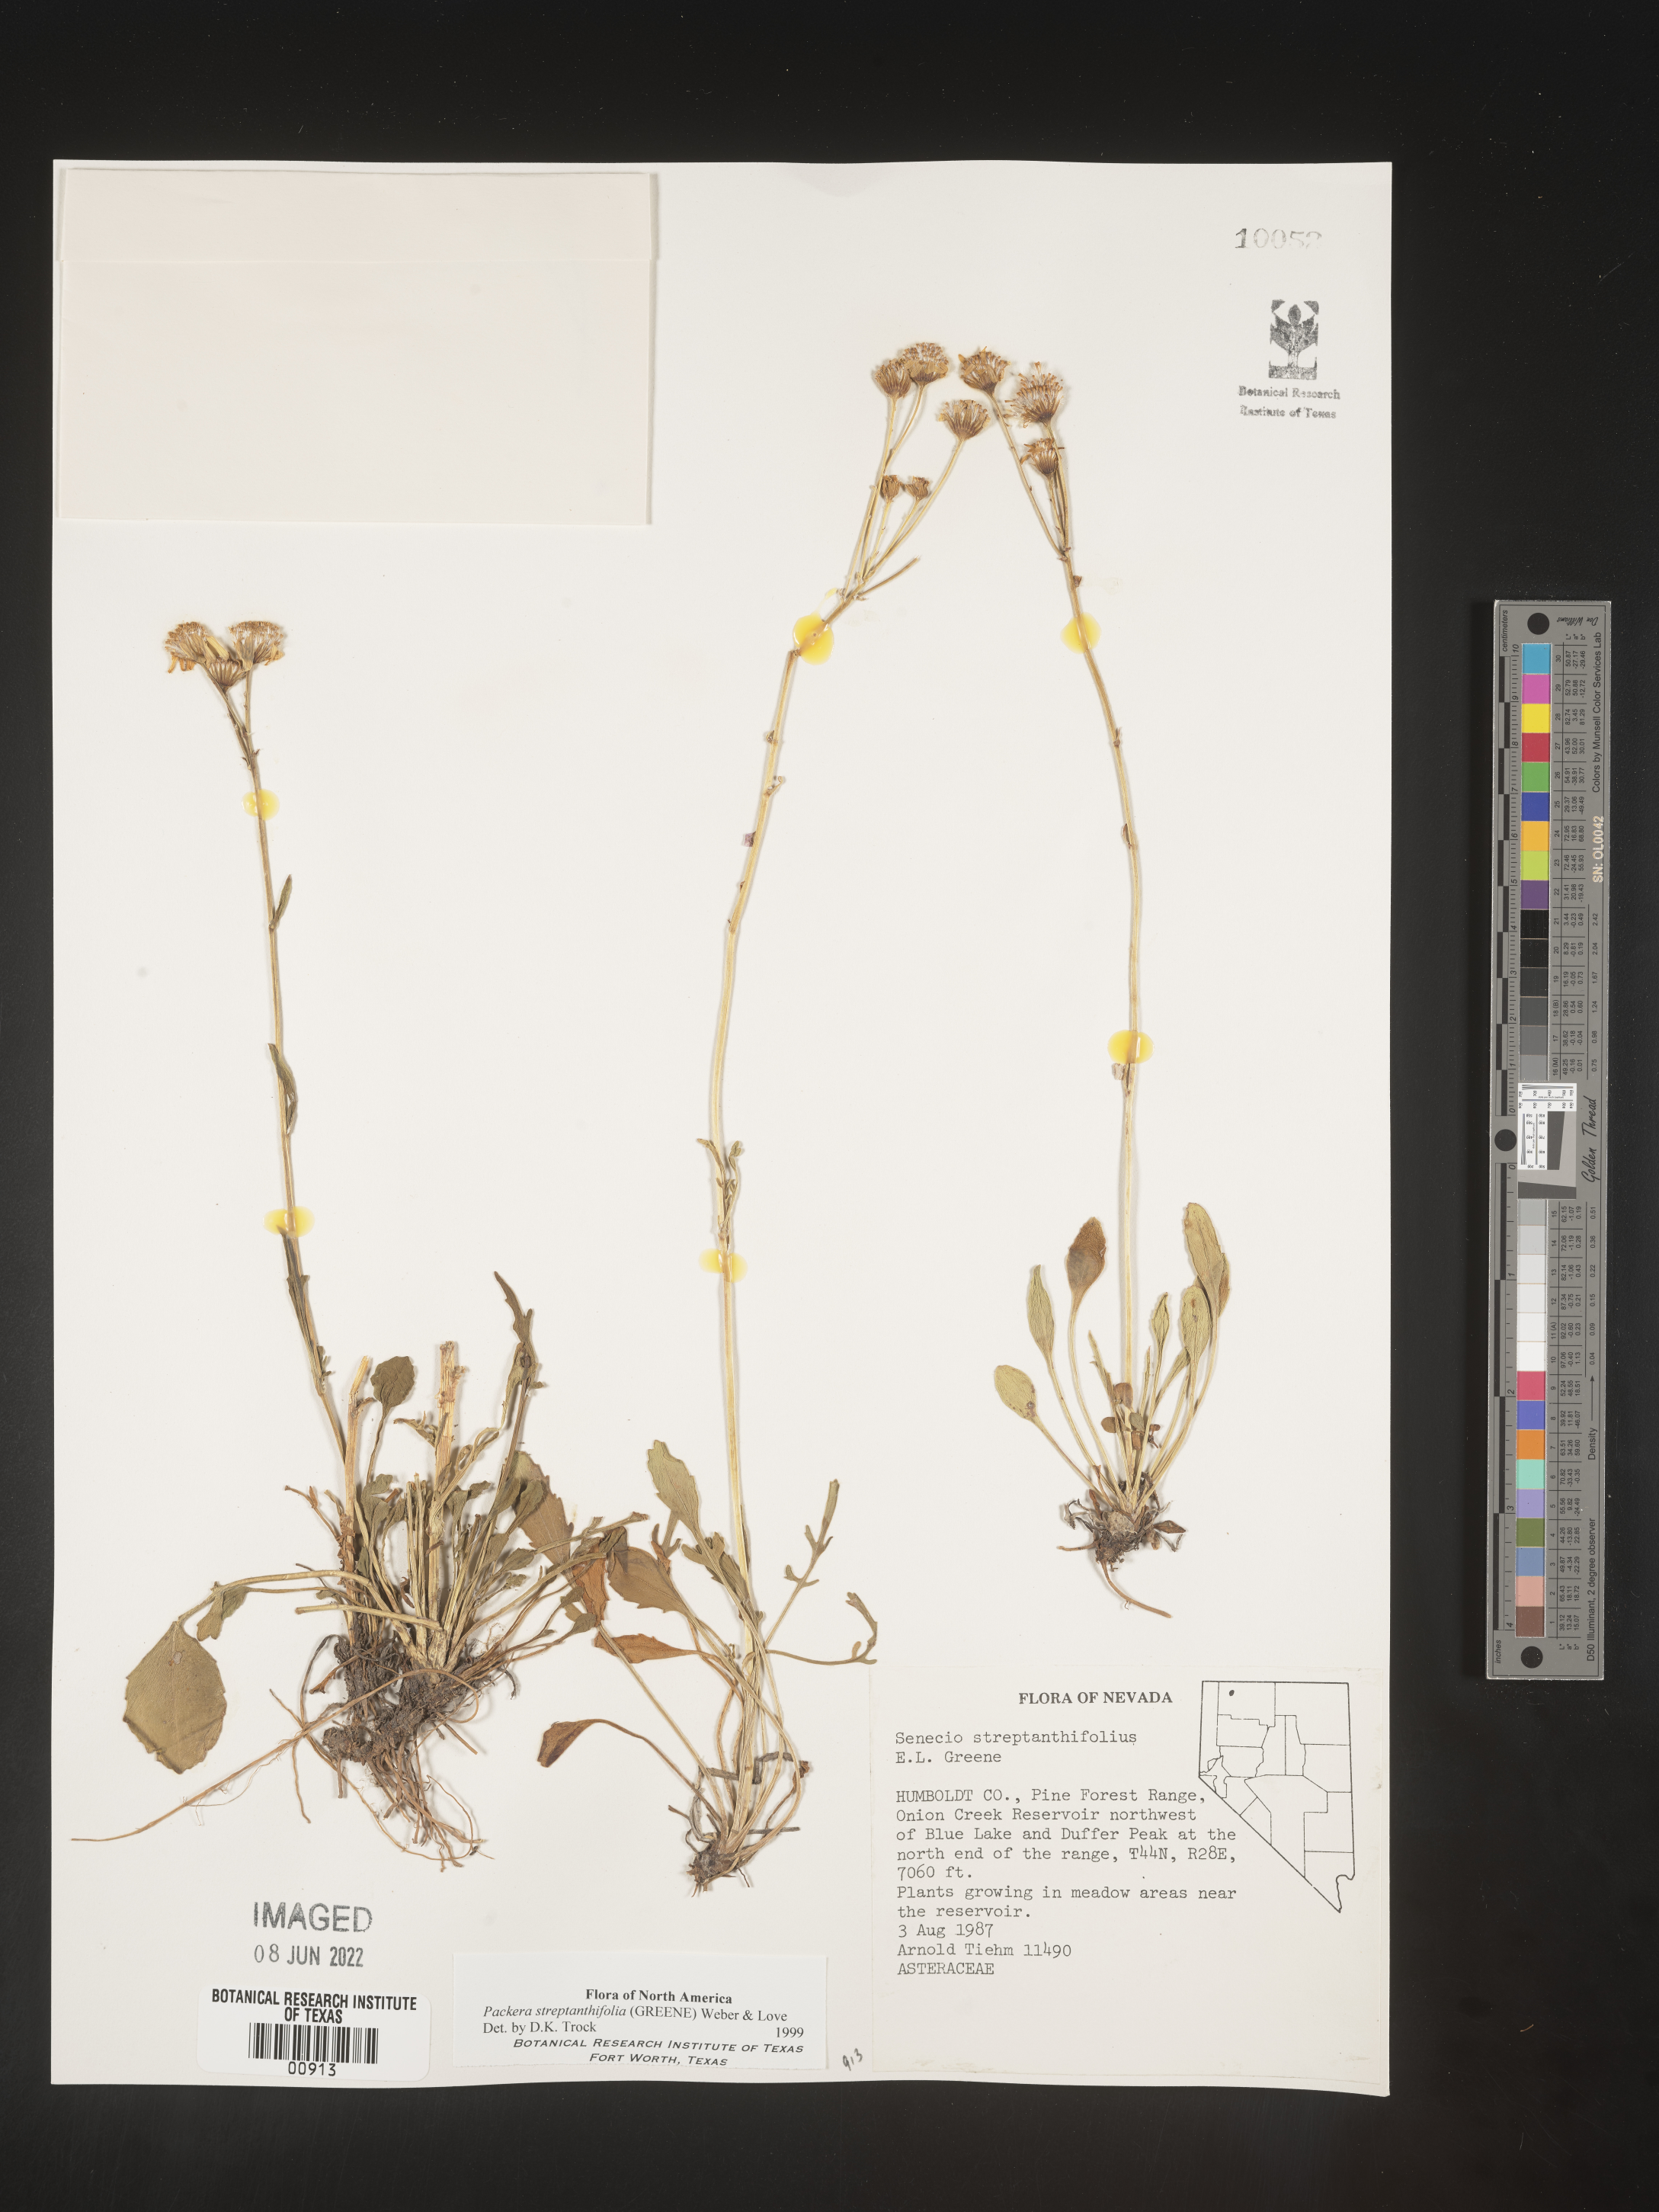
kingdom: Plantae
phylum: Tracheophyta
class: Magnoliopsida
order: Asterales
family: Asteraceae
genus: Packera
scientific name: Packera streptanthifolia
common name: Rocky mountain butterweed
